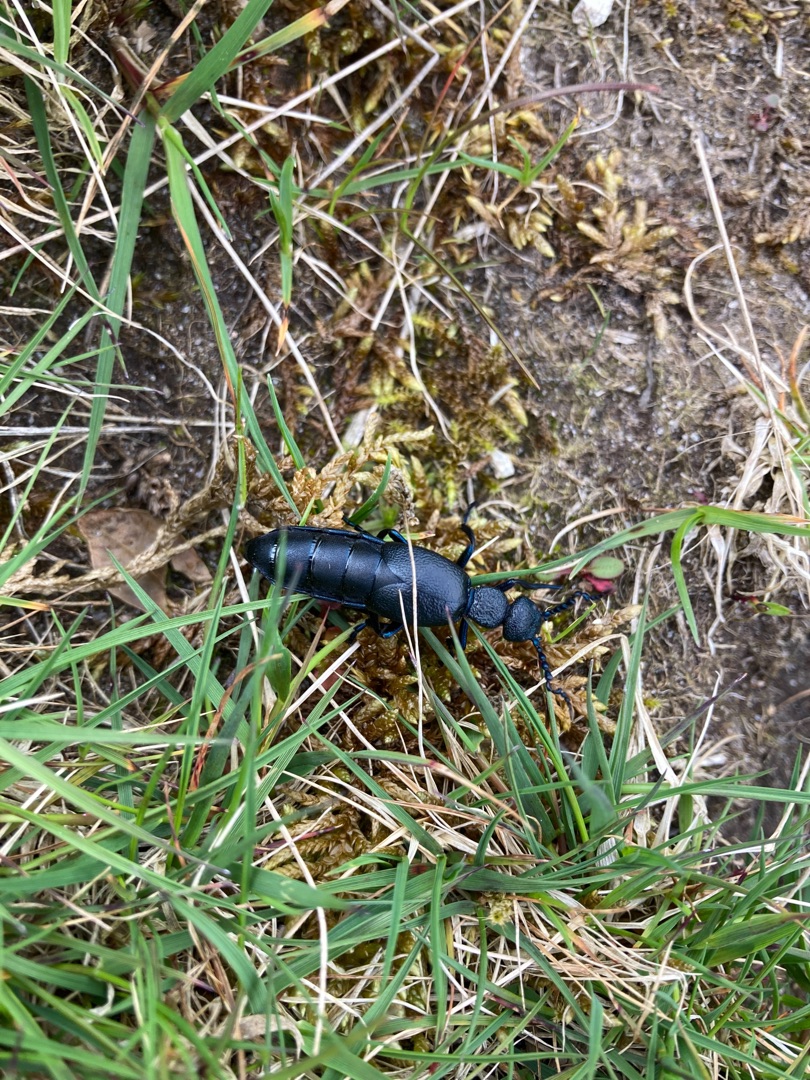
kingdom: Animalia
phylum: Arthropoda
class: Insecta
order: Coleoptera
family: Meloidae
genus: Meloe
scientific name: Meloe proscarabaeus
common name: Sort oliebille
